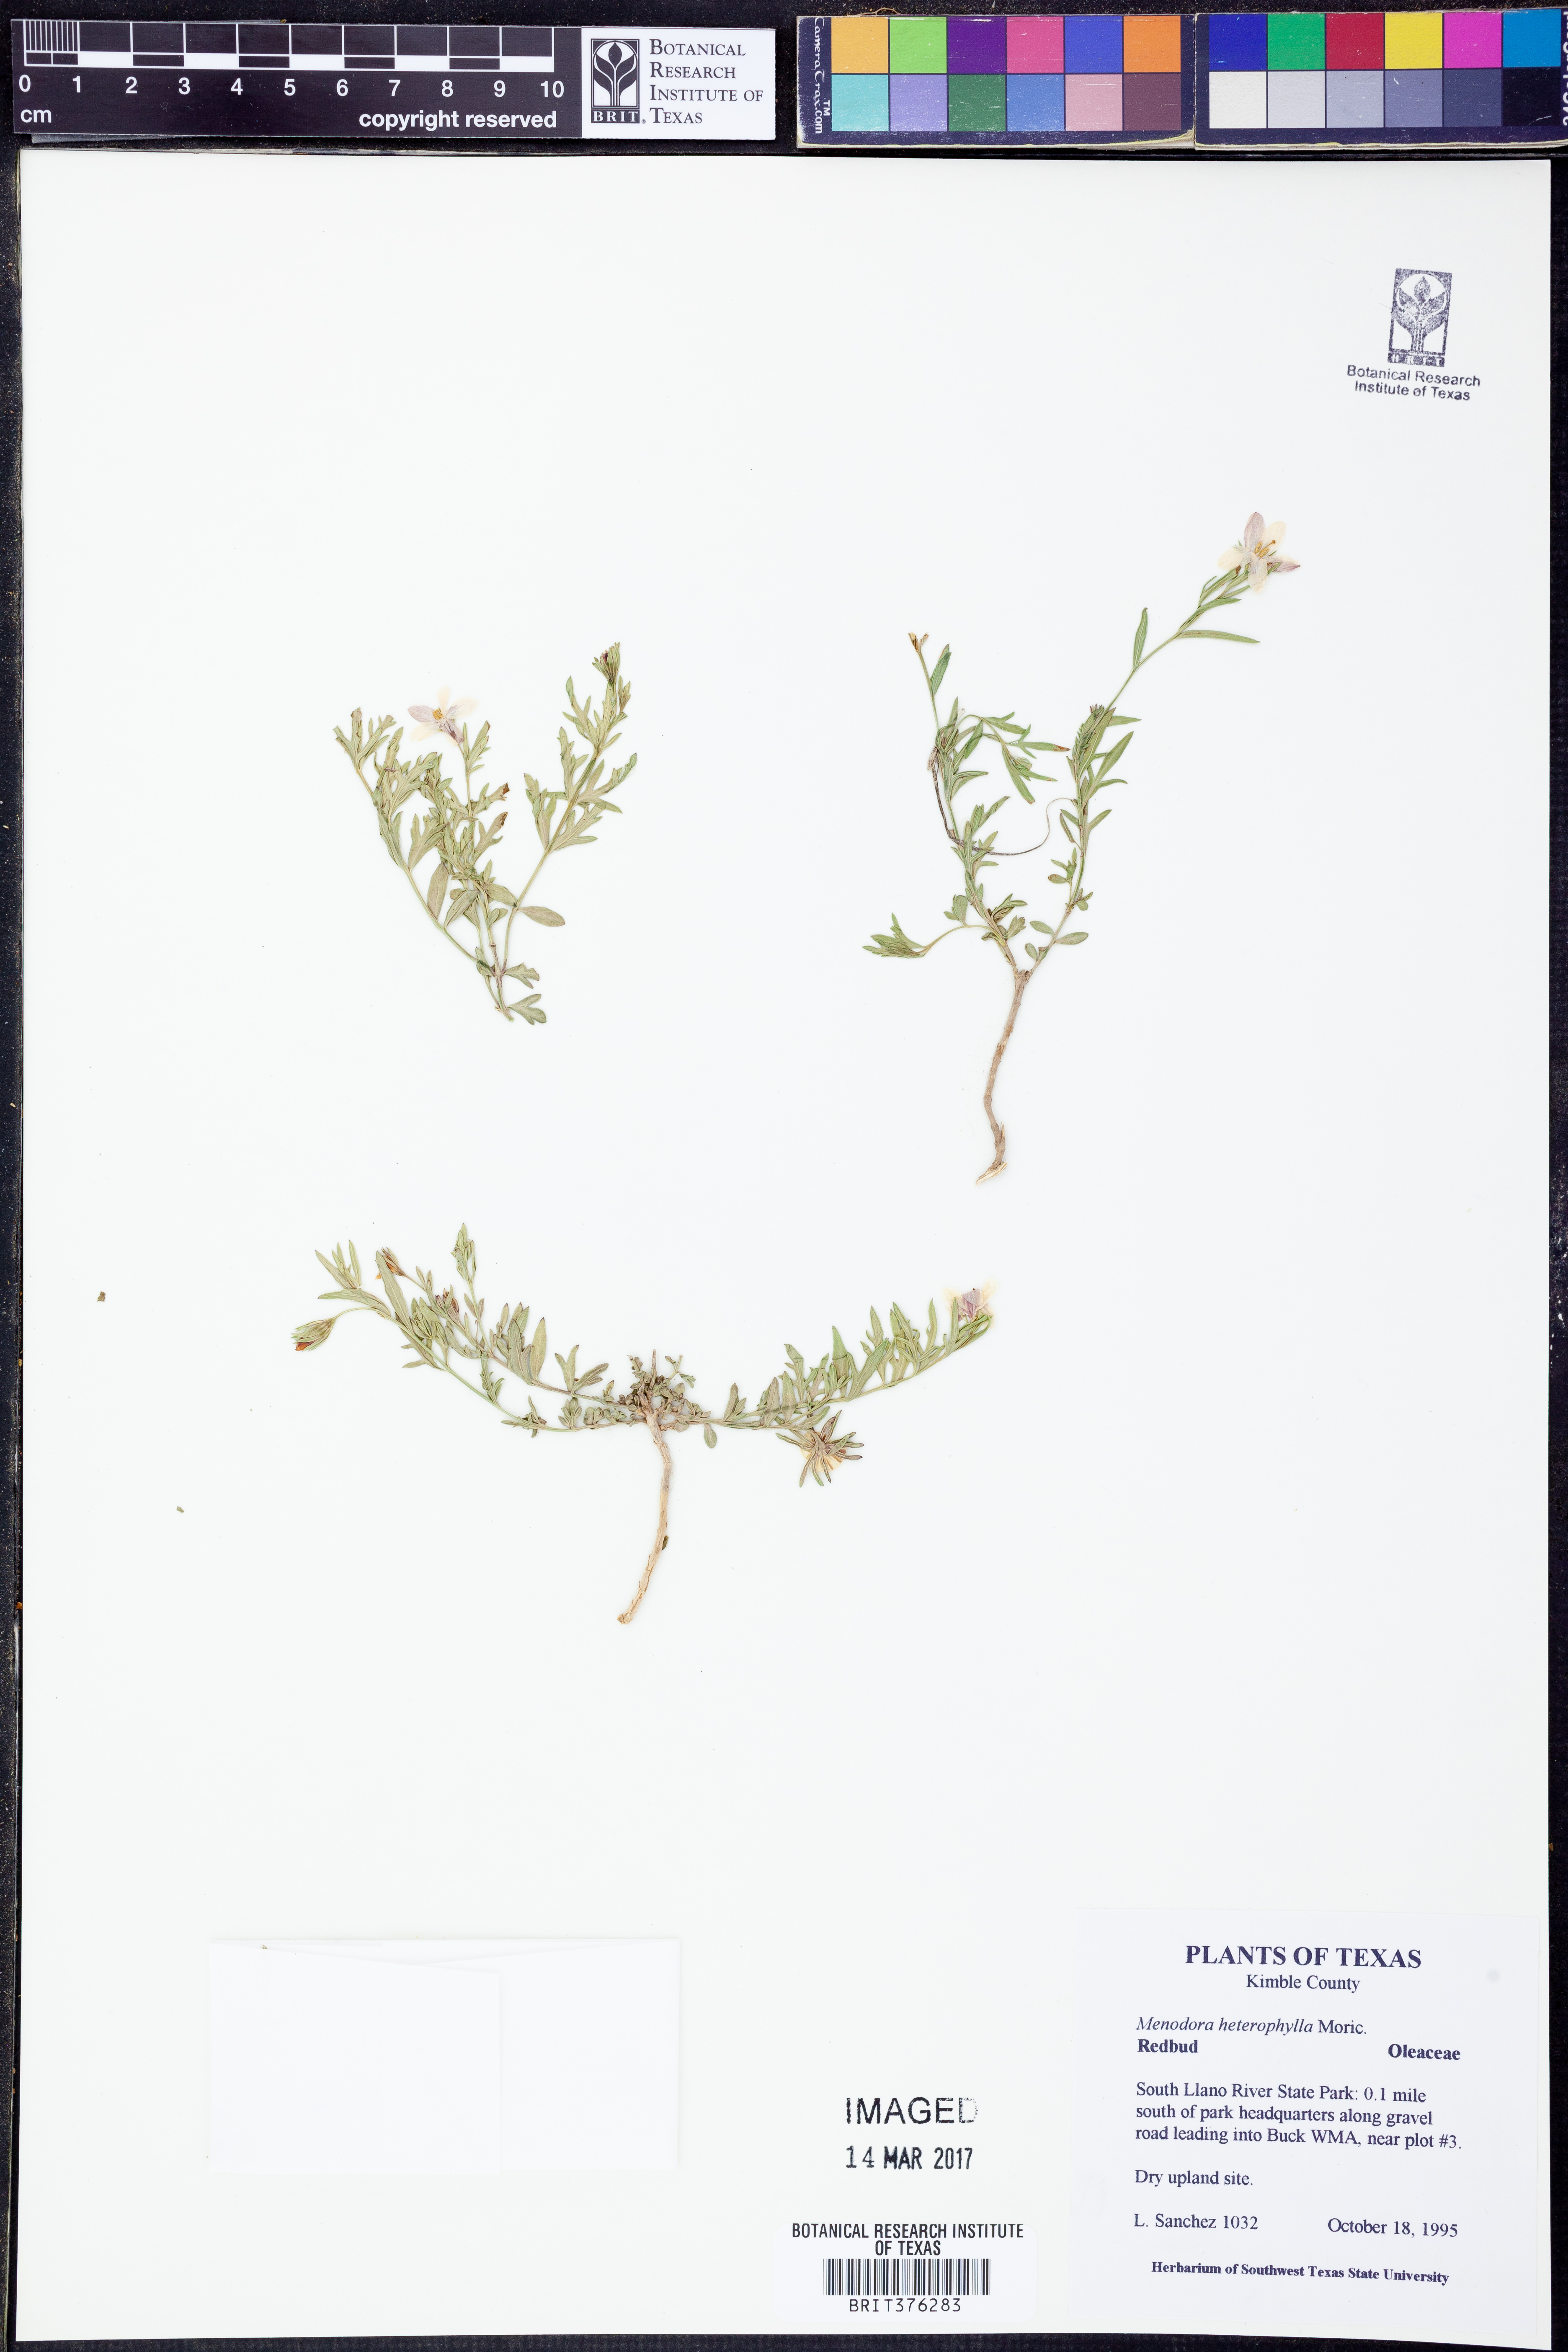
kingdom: Plantae
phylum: Tracheophyta
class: Magnoliopsida
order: Lamiales
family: Oleaceae
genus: Menodora
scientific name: Menodora heterophylla
